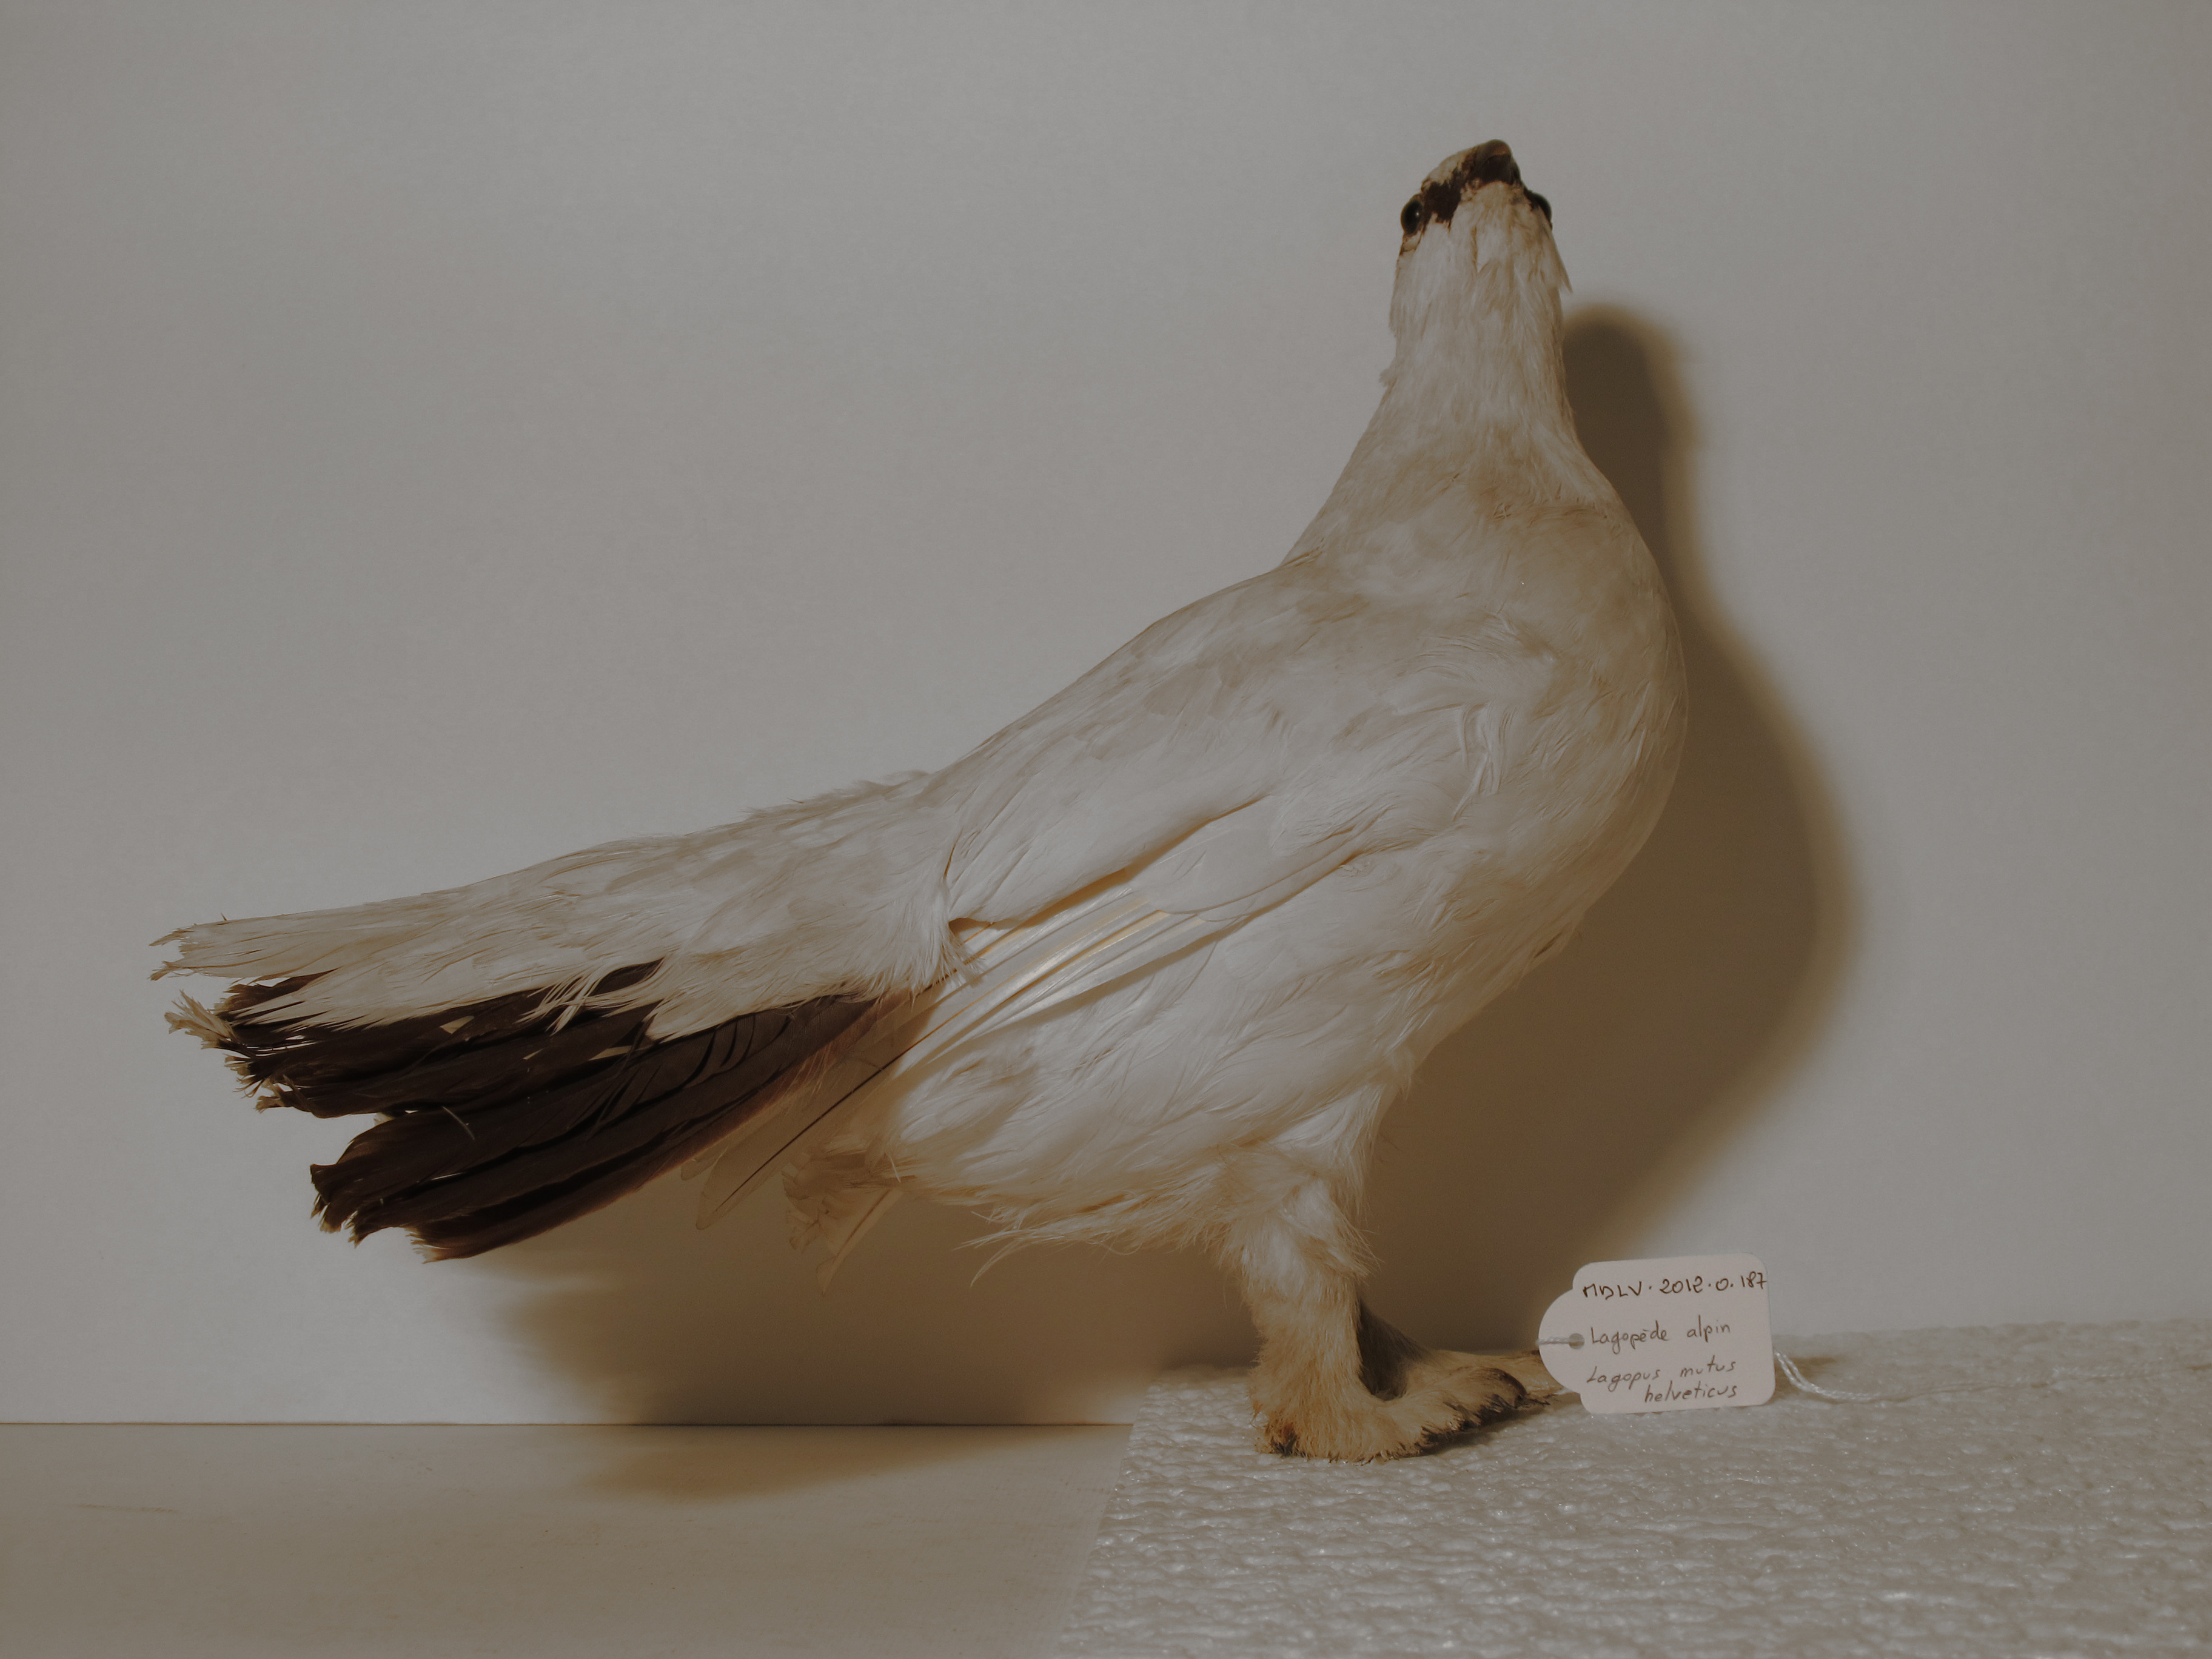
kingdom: Animalia
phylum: Chordata
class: Aves
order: Galliformes
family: Phasianidae
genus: Lagopus
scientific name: Lagopus muta
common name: Rock Ptarmigan
